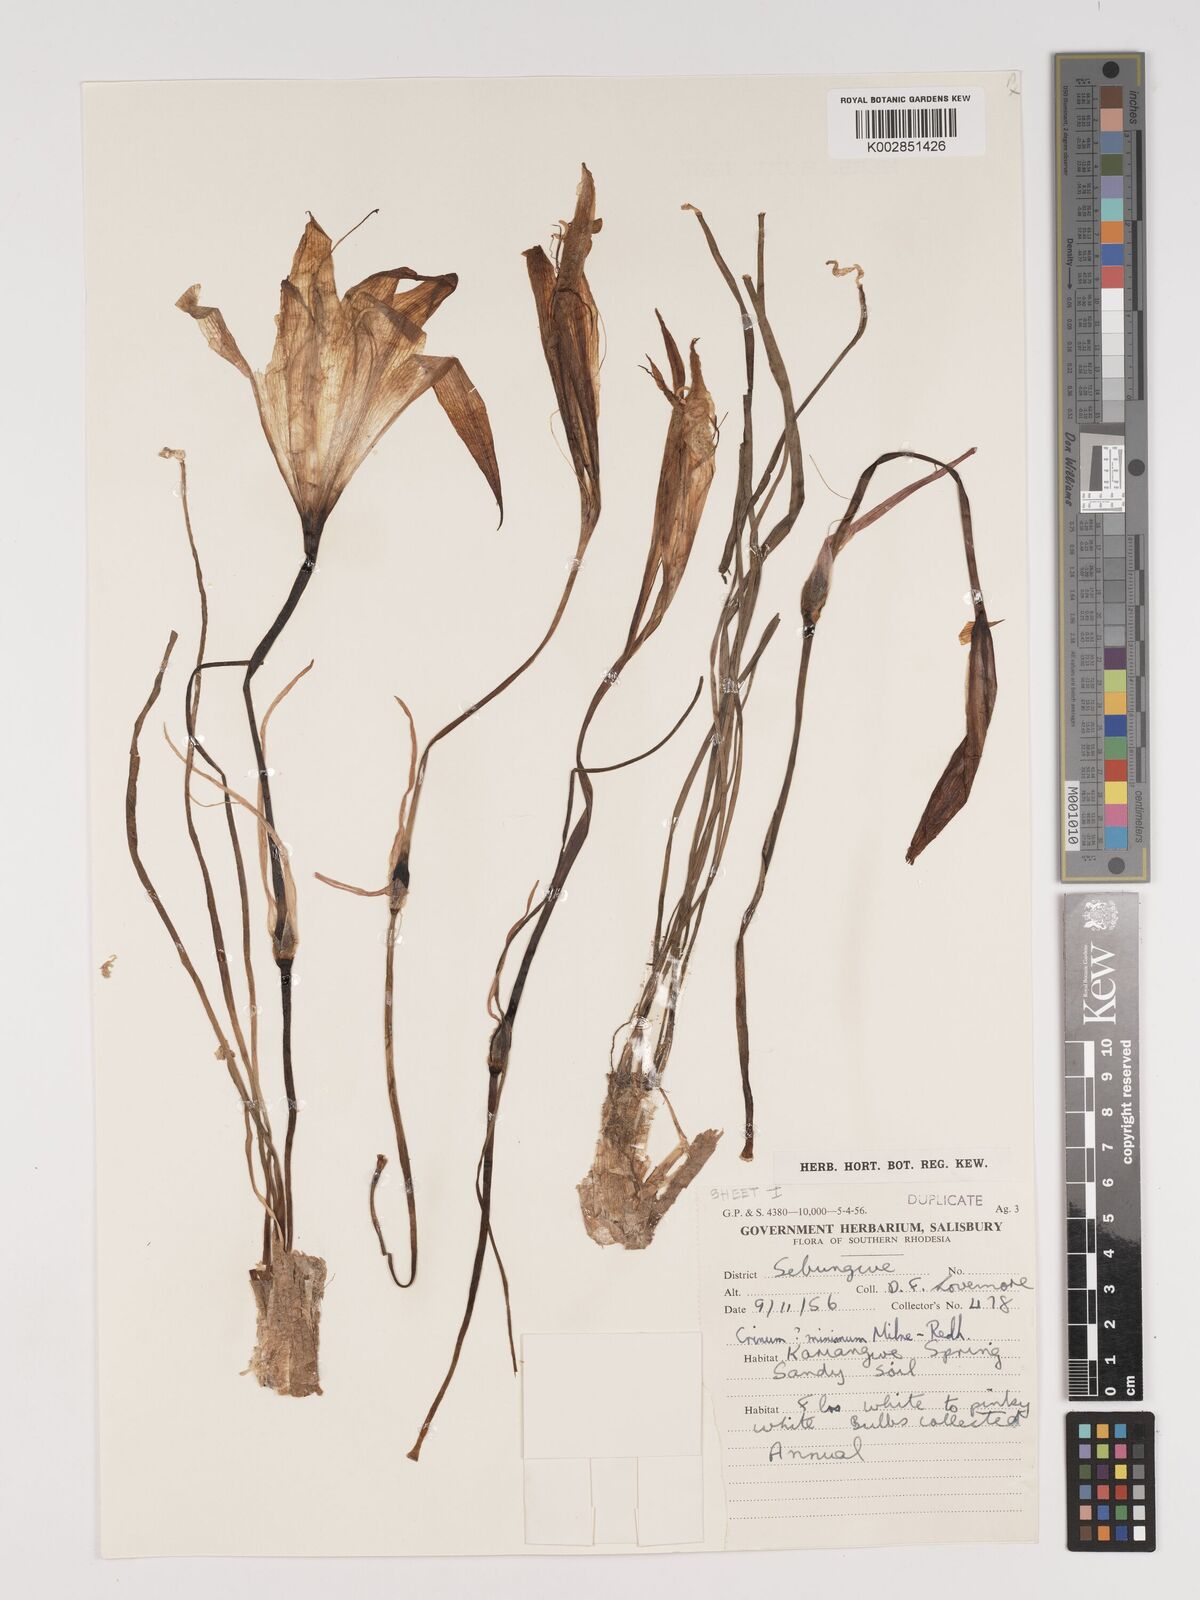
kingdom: Plantae
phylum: Tracheophyta
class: Liliopsida
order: Asparagales
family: Amaryllidaceae
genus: Crinum
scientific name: Crinum walteri
